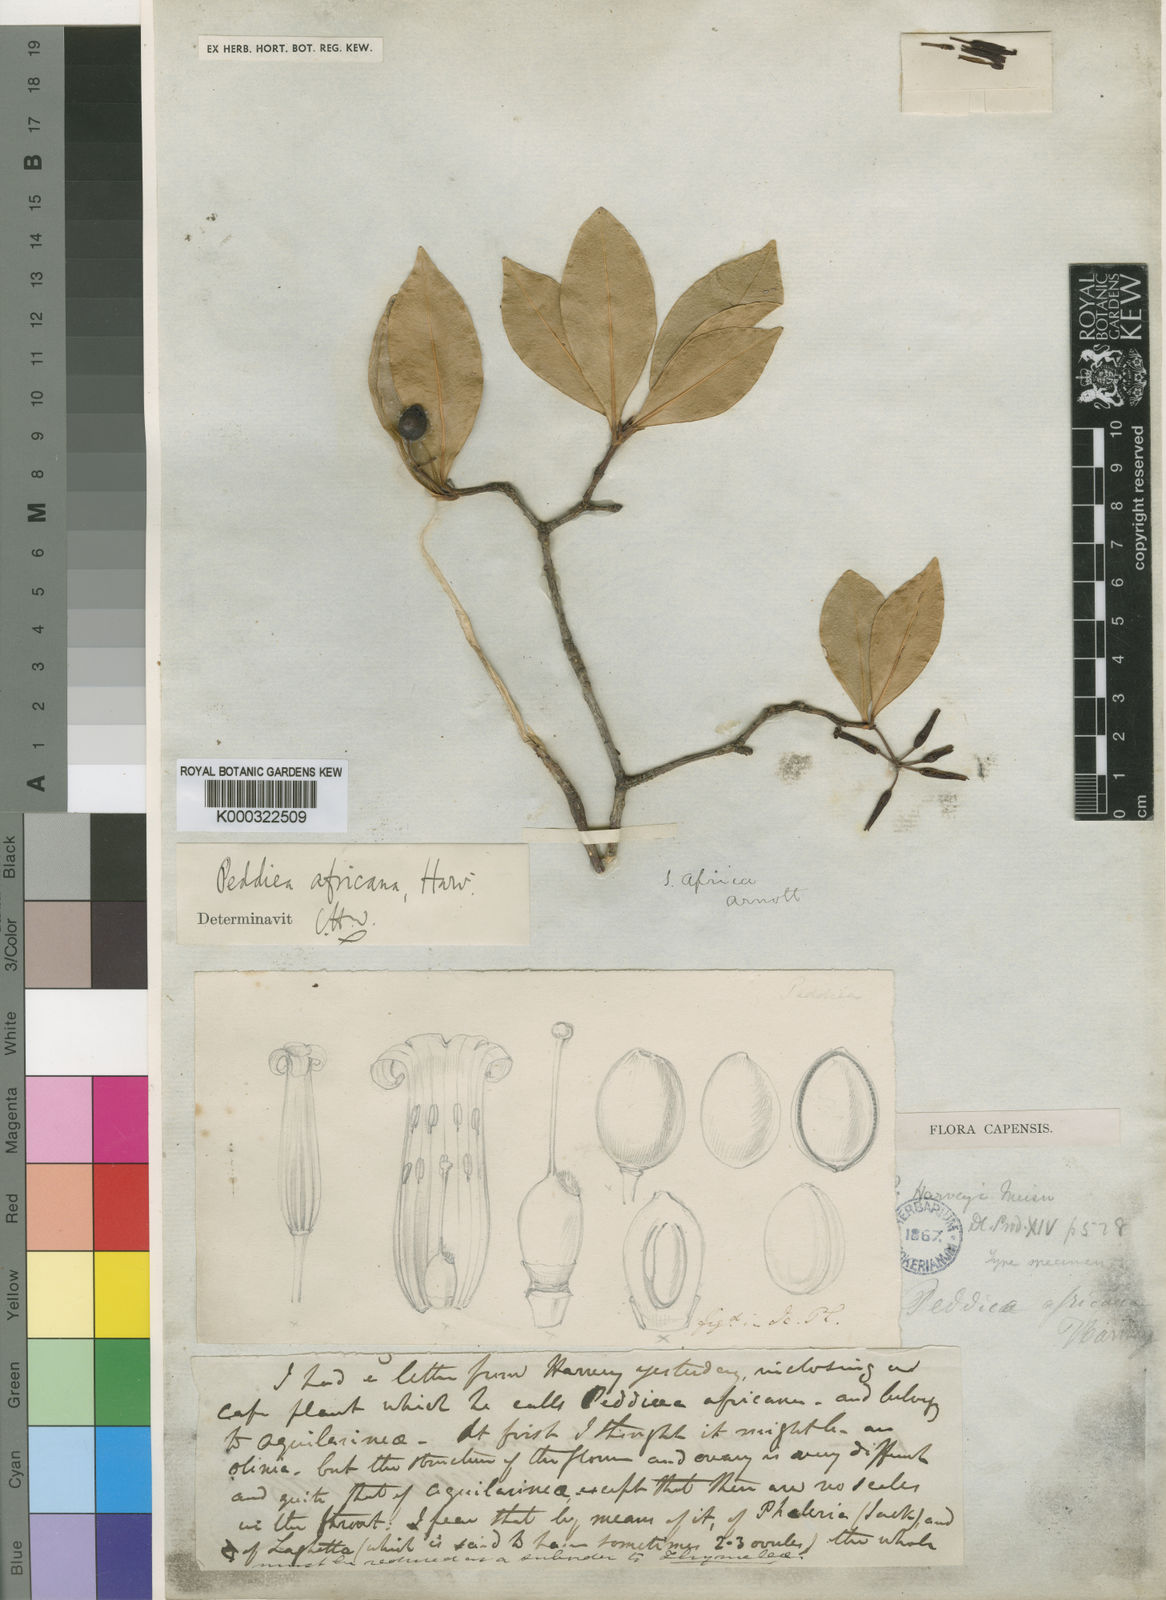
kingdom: Plantae
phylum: Tracheophyta
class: Magnoliopsida
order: Malvales
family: Thymelaeaceae
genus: Peddiea
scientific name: Peddiea africana
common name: Poison olive
